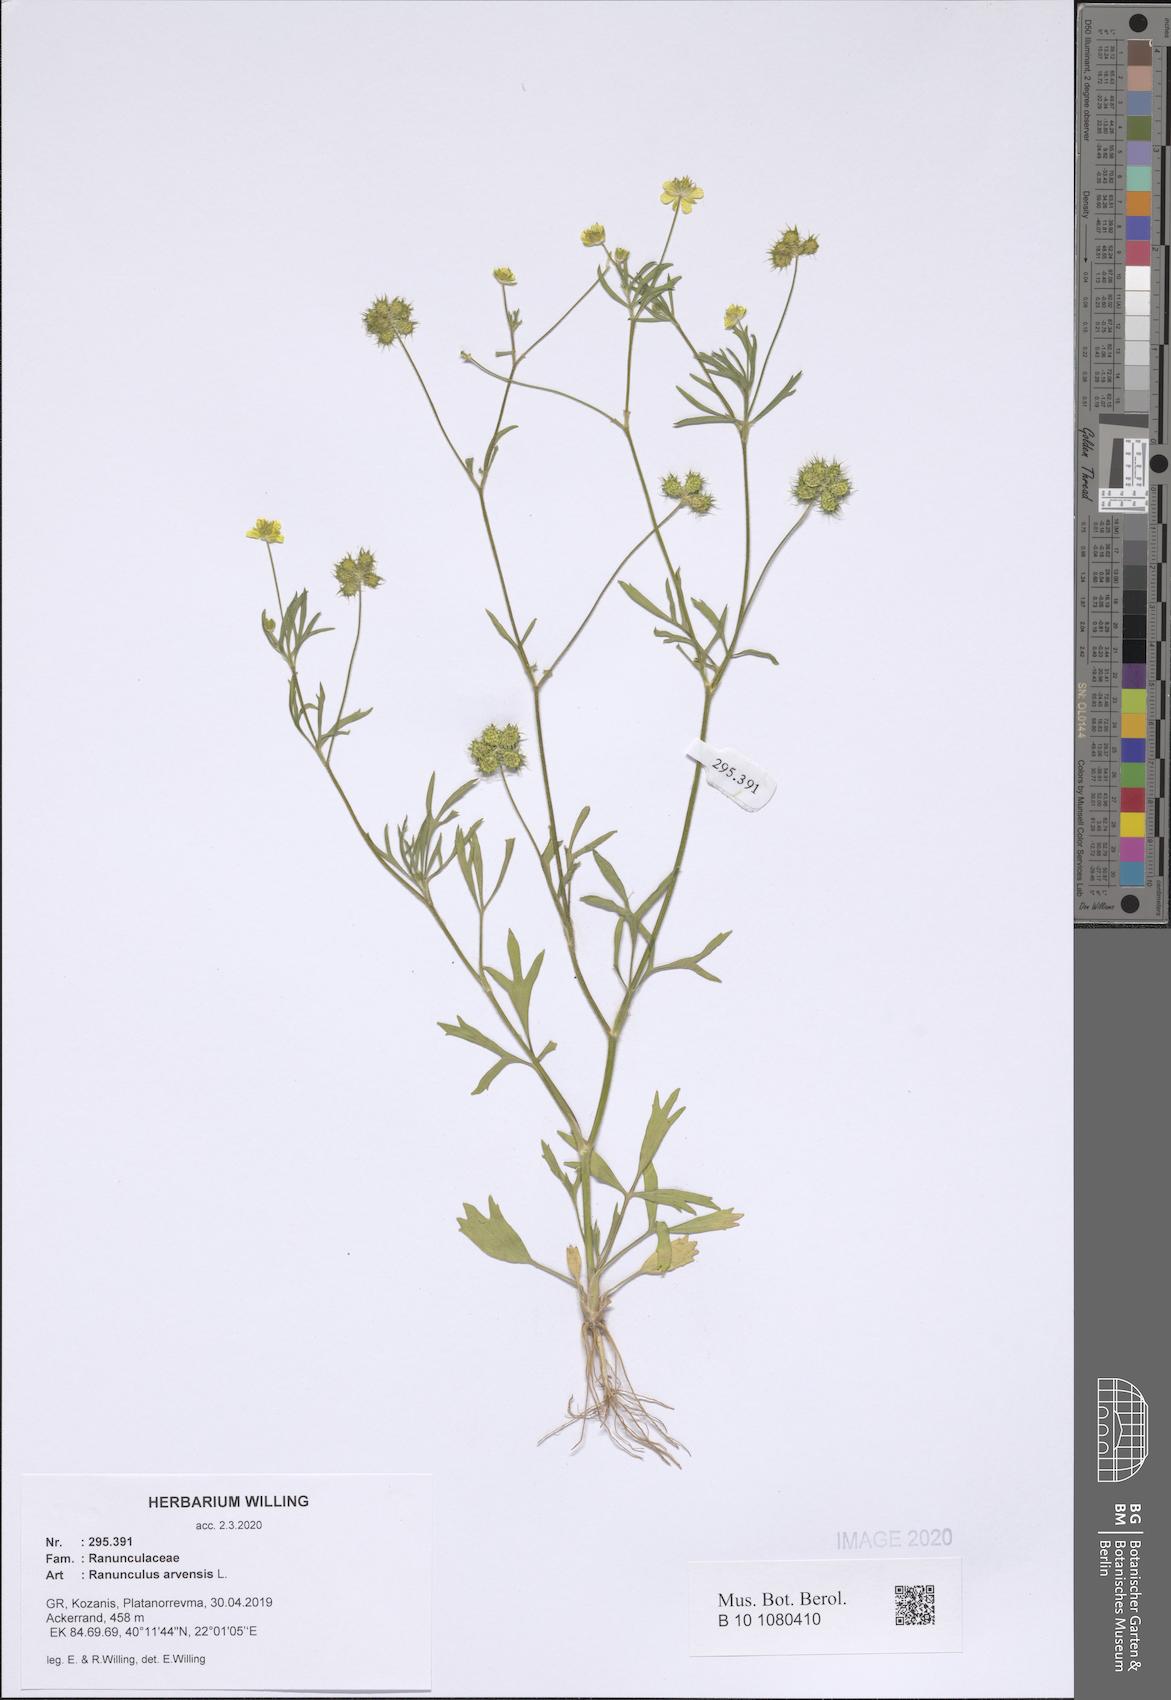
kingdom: Plantae
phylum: Tracheophyta
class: Magnoliopsida
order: Ranunculales
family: Ranunculaceae
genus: Ranunculus
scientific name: Ranunculus arvensis
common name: Corn buttercup
